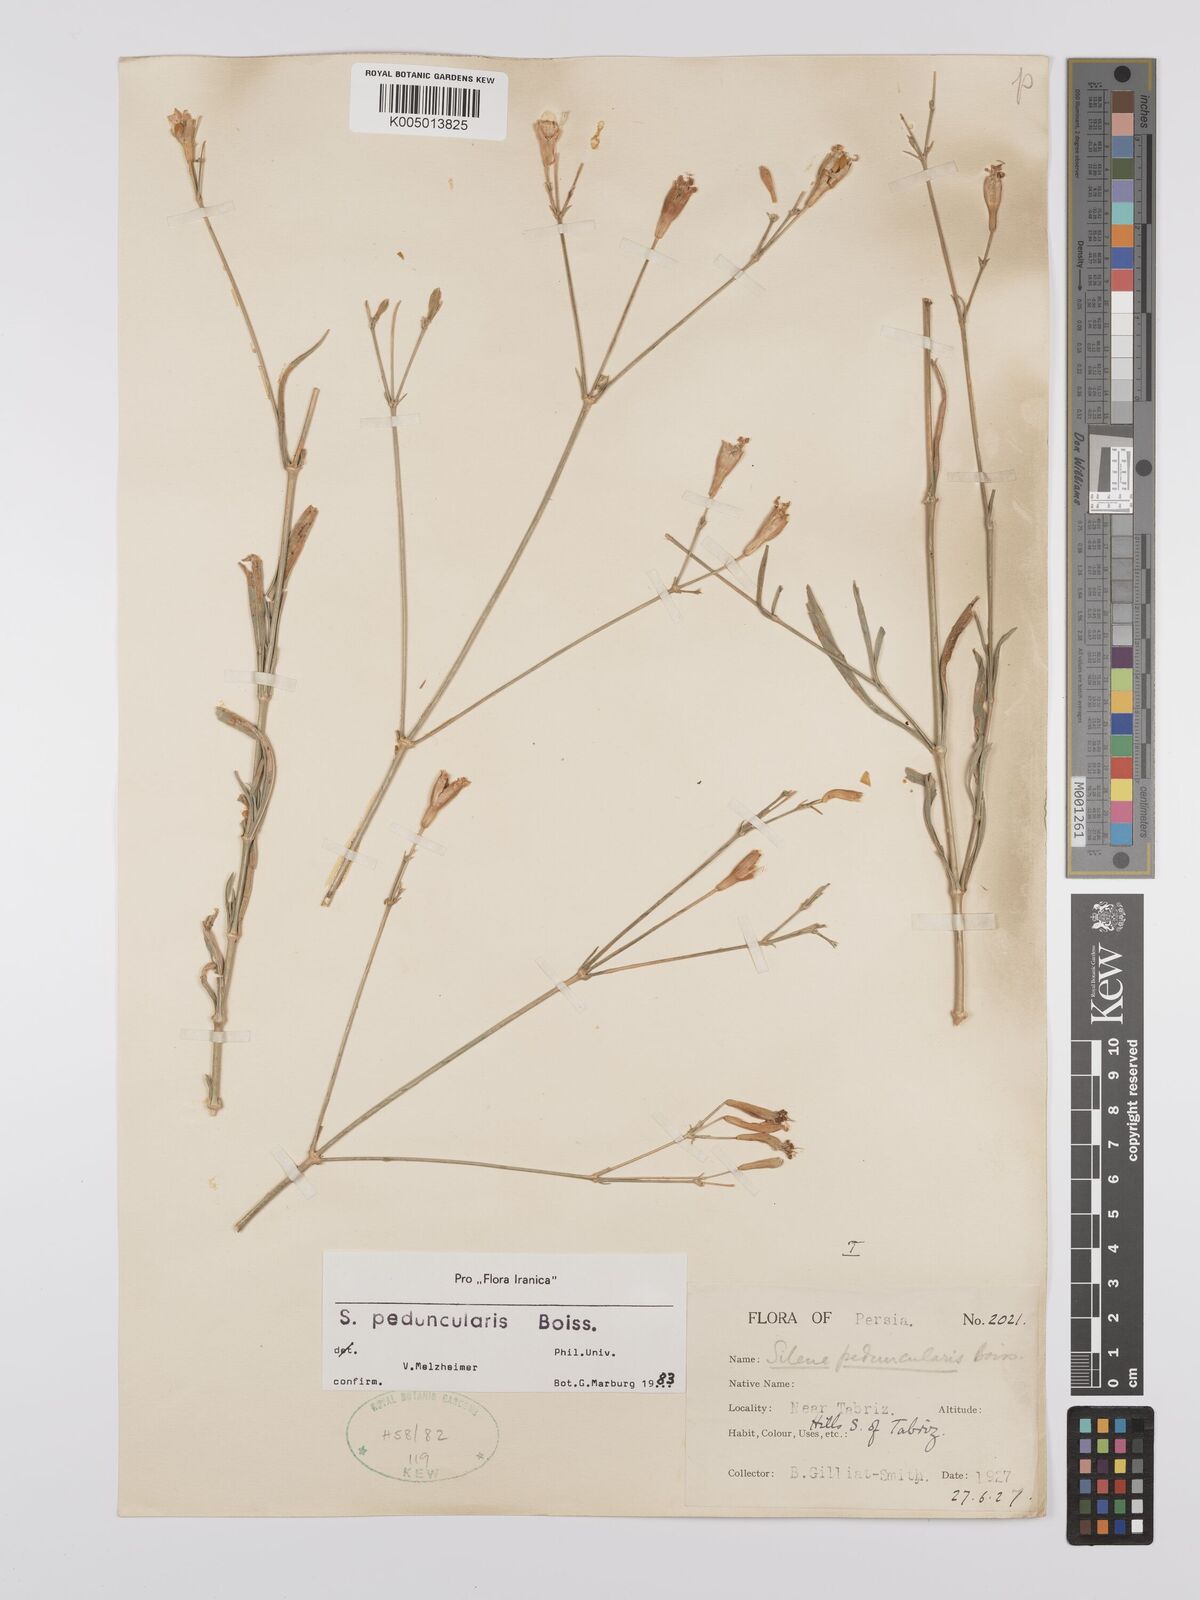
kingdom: Plantae
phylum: Tracheophyta
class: Magnoliopsida
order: Caryophyllales
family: Caryophyllaceae
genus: Silene
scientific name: Silene peduncularis
